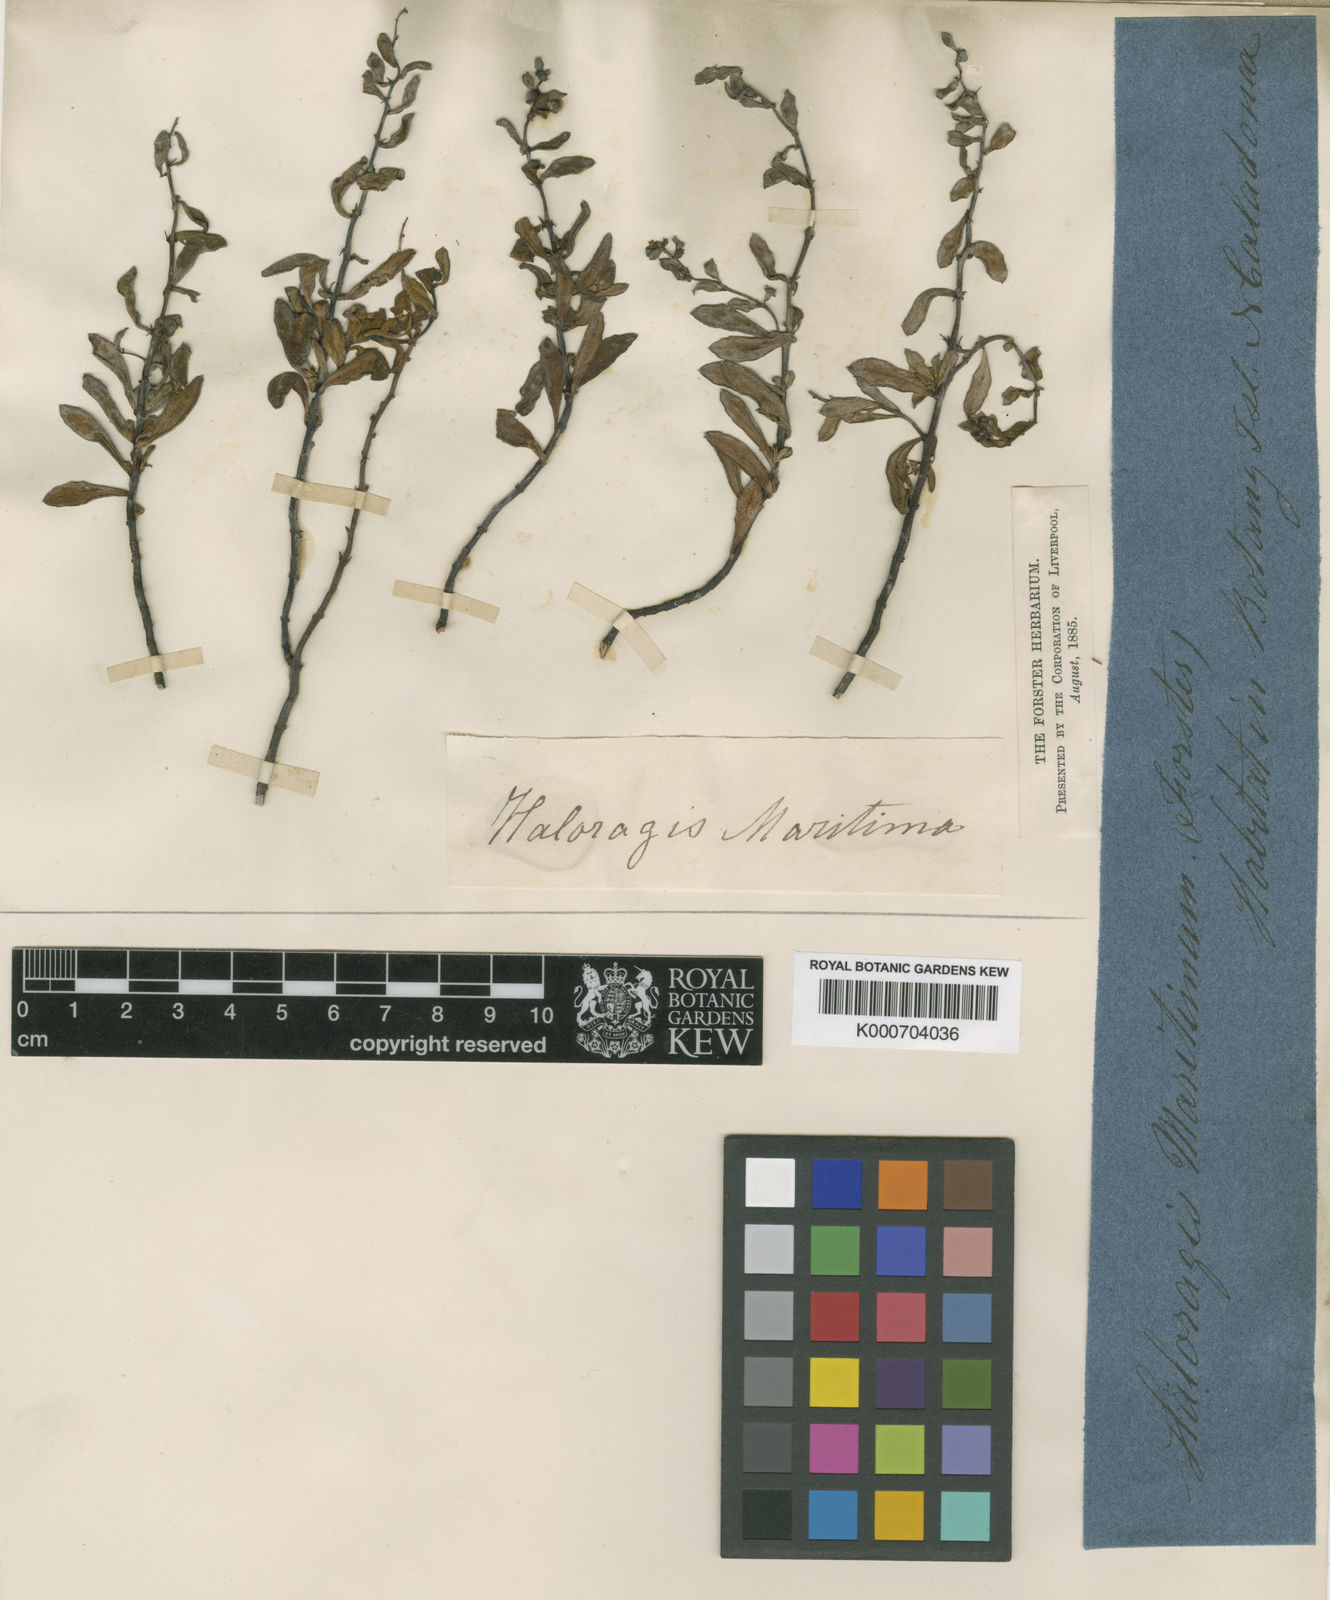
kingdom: Plantae
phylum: Tracheophyta
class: Magnoliopsida
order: Saxifragales
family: Haloragaceae
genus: Haloragis
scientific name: Haloragis prostrata
